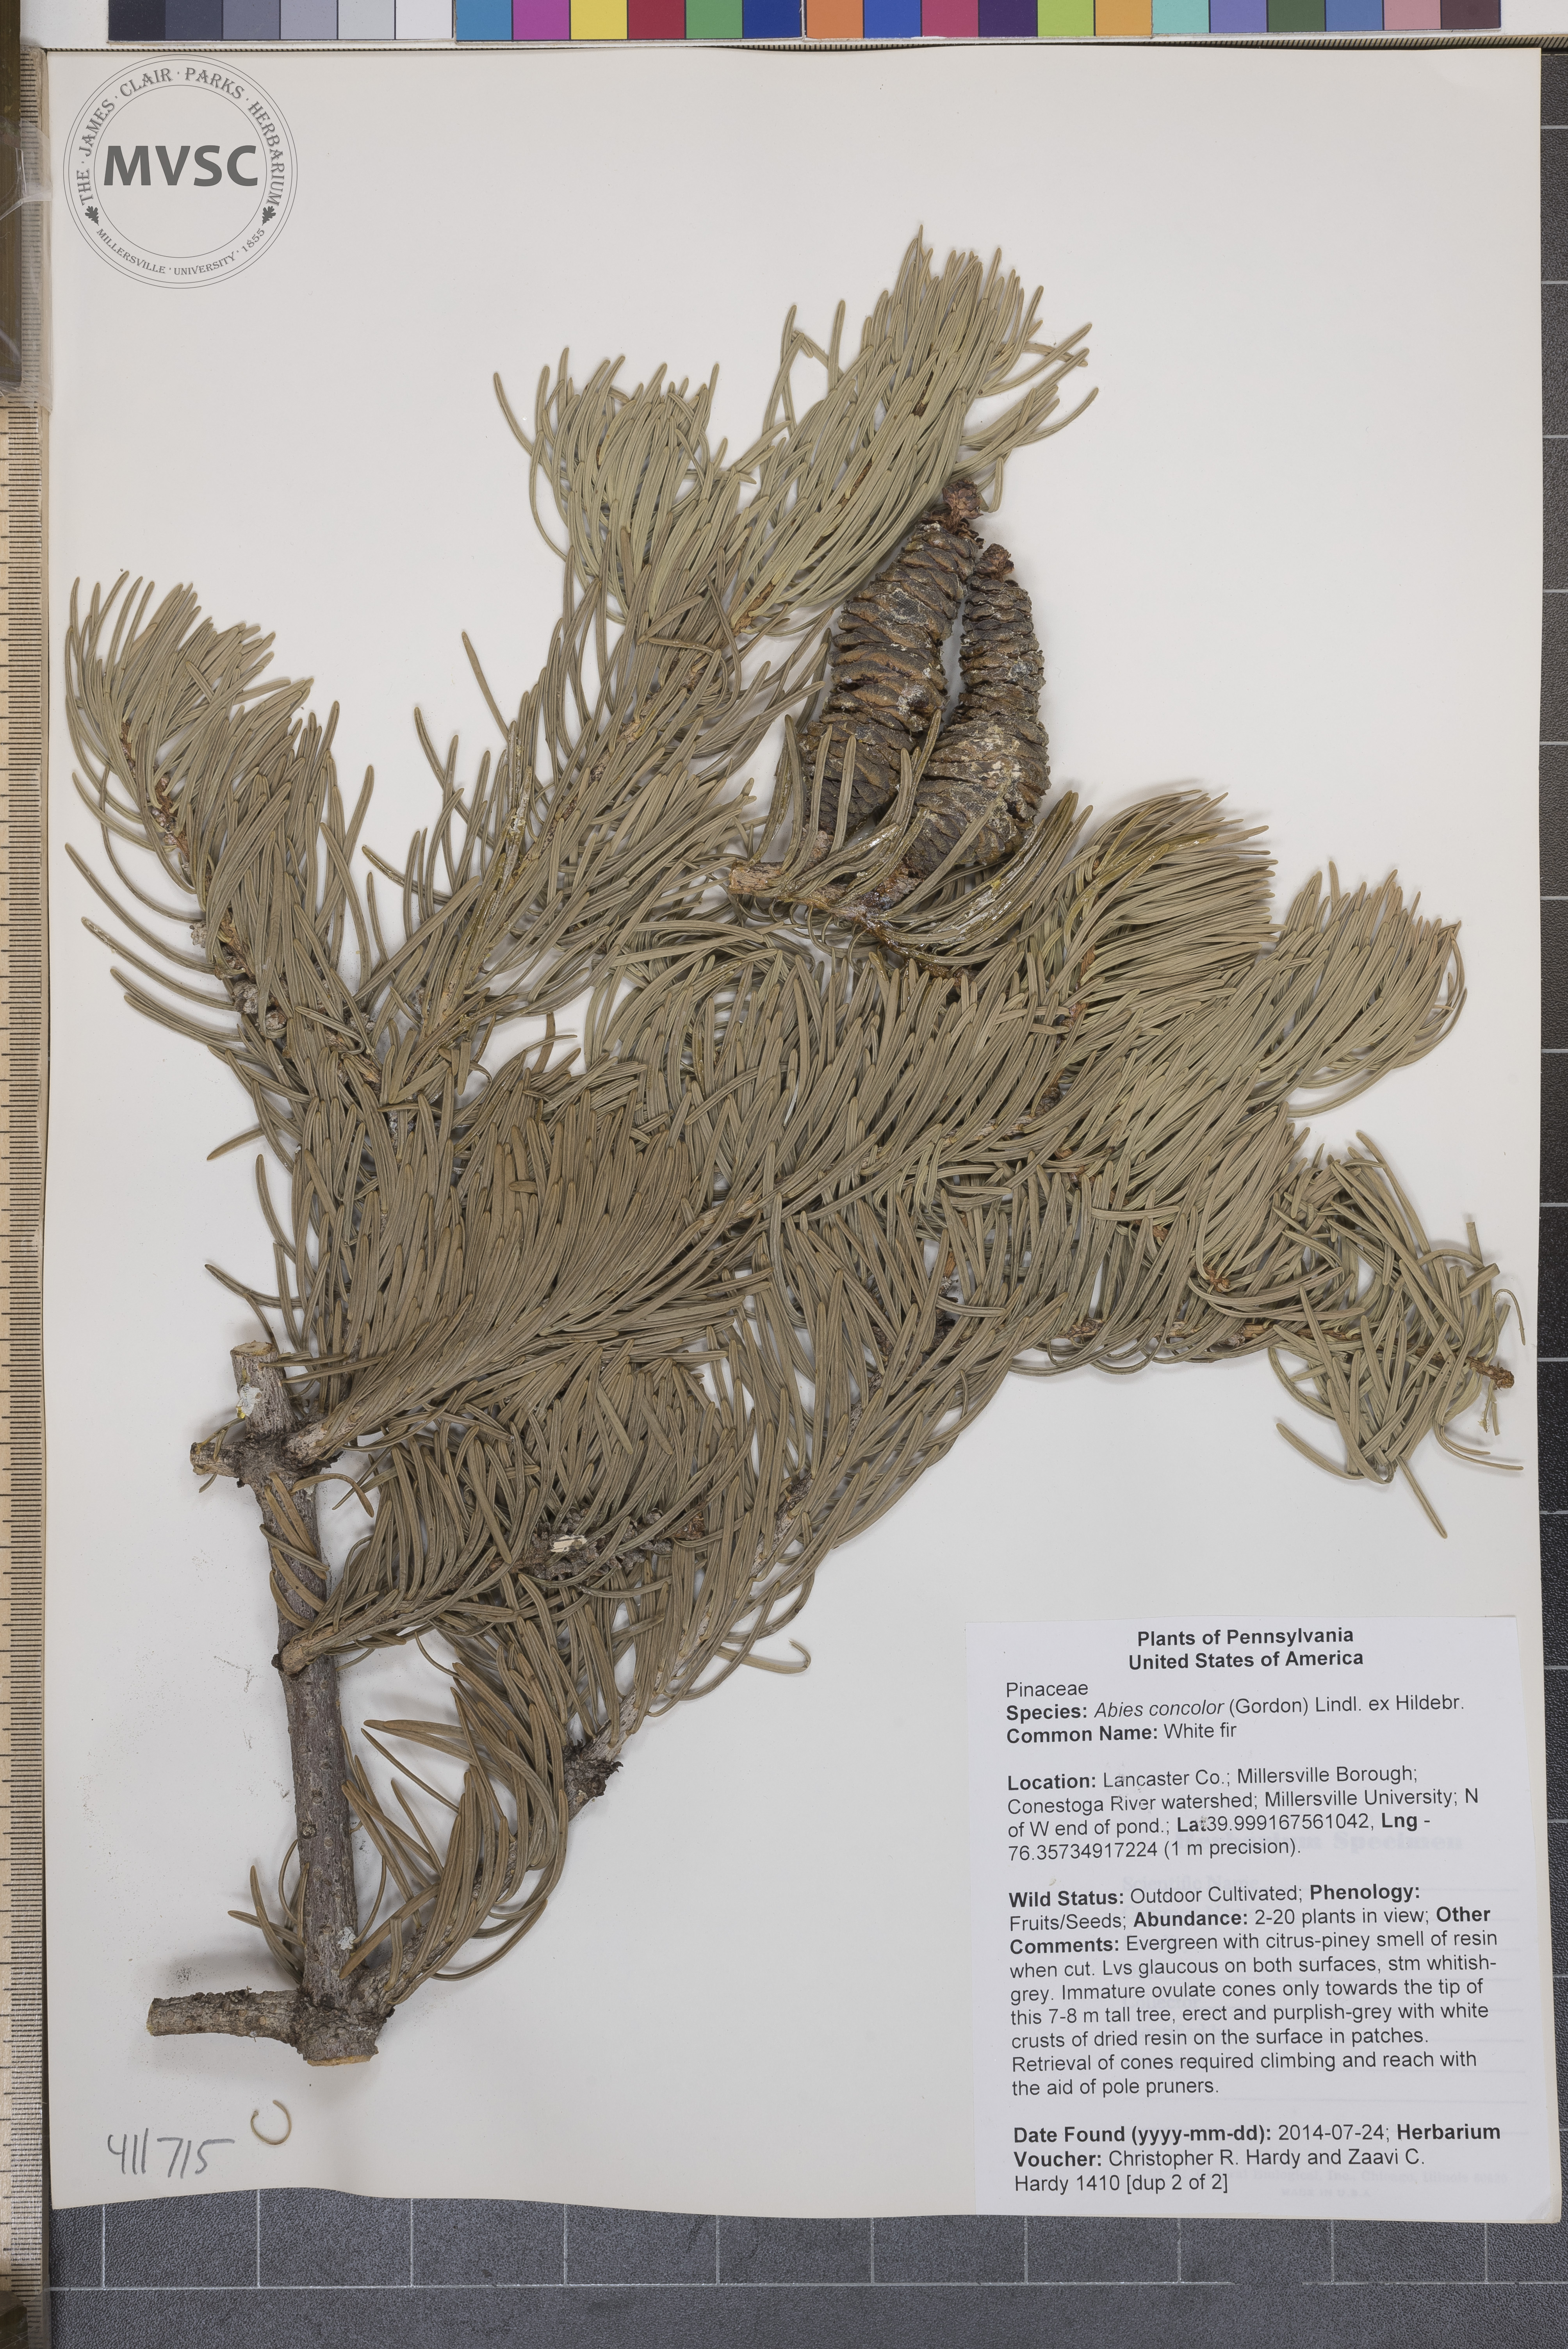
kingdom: Plantae
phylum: Tracheophyta
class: Pinopsida
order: Pinales
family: Pinaceae
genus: Abies
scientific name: Abies concolor
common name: Concolor fir
